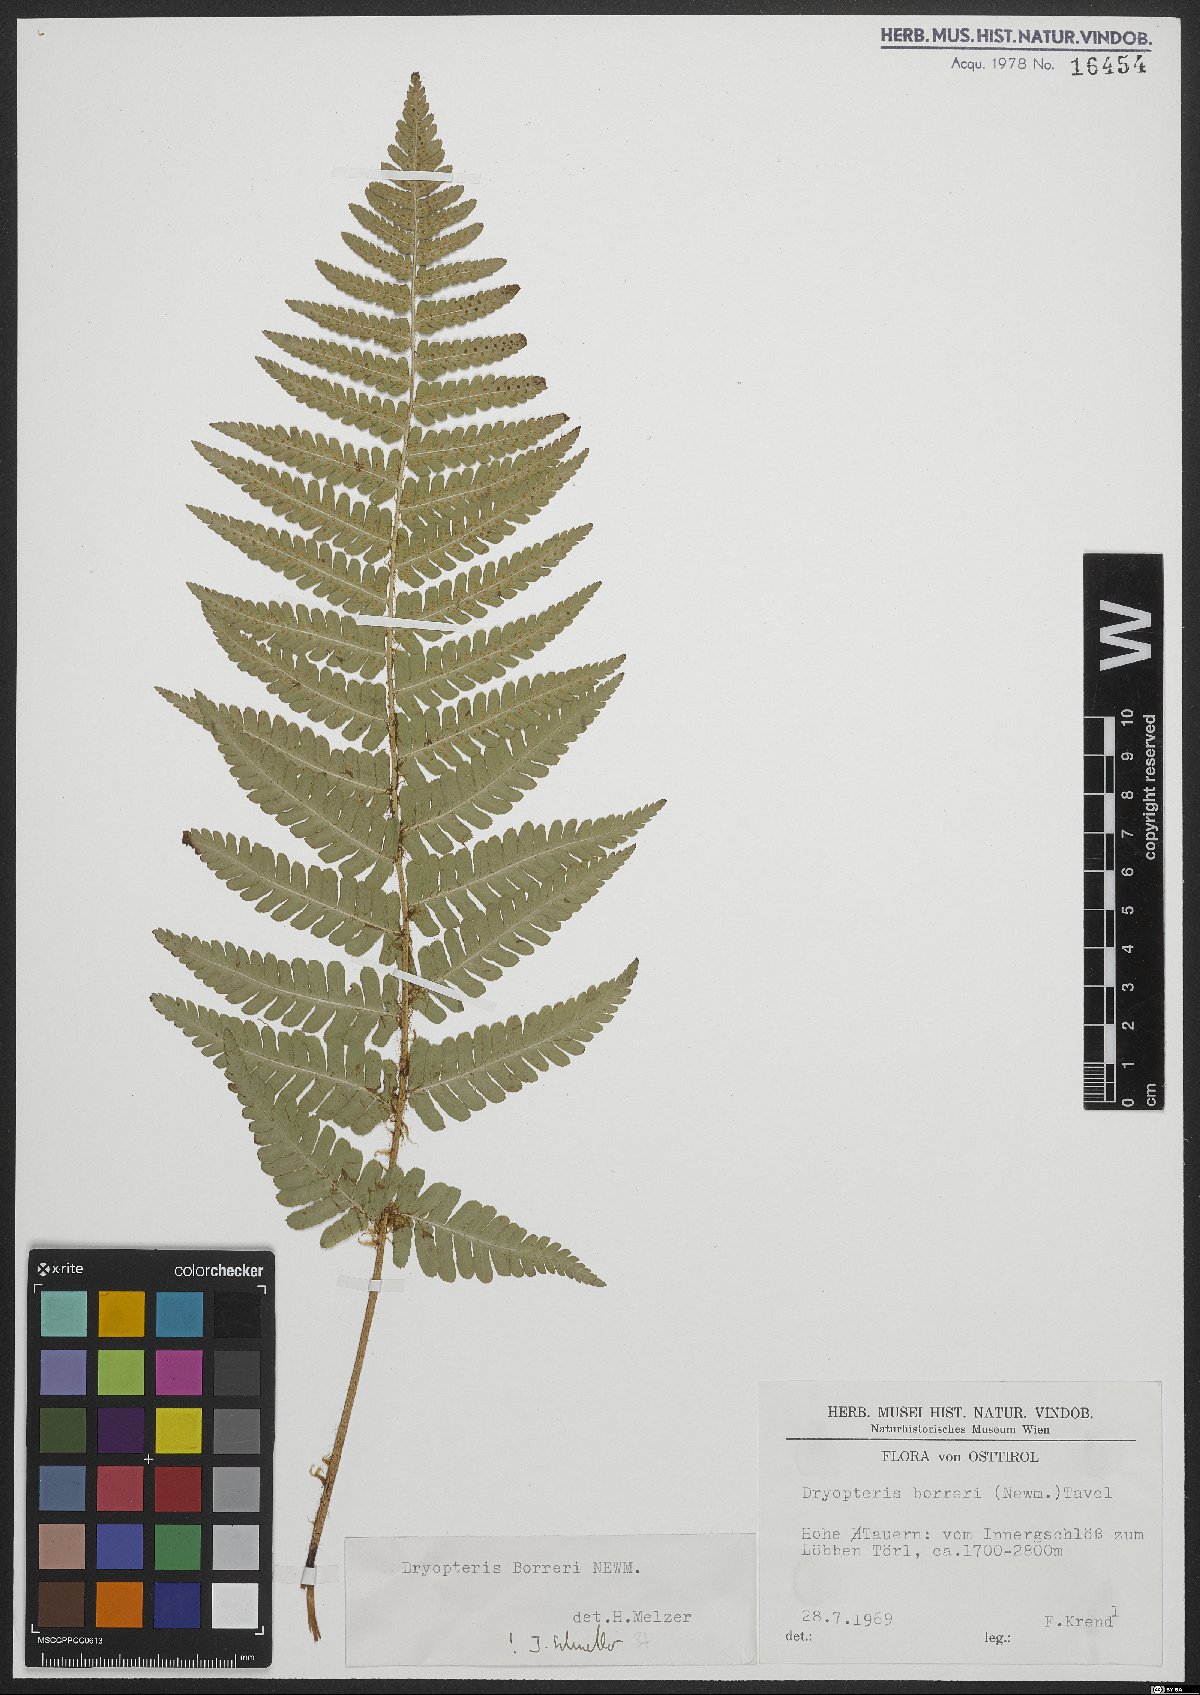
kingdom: Plantae
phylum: Tracheophyta
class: Polypodiopsida
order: Polypodiales
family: Dryopteridaceae
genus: Dryopteris
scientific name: Dryopteris borreri
